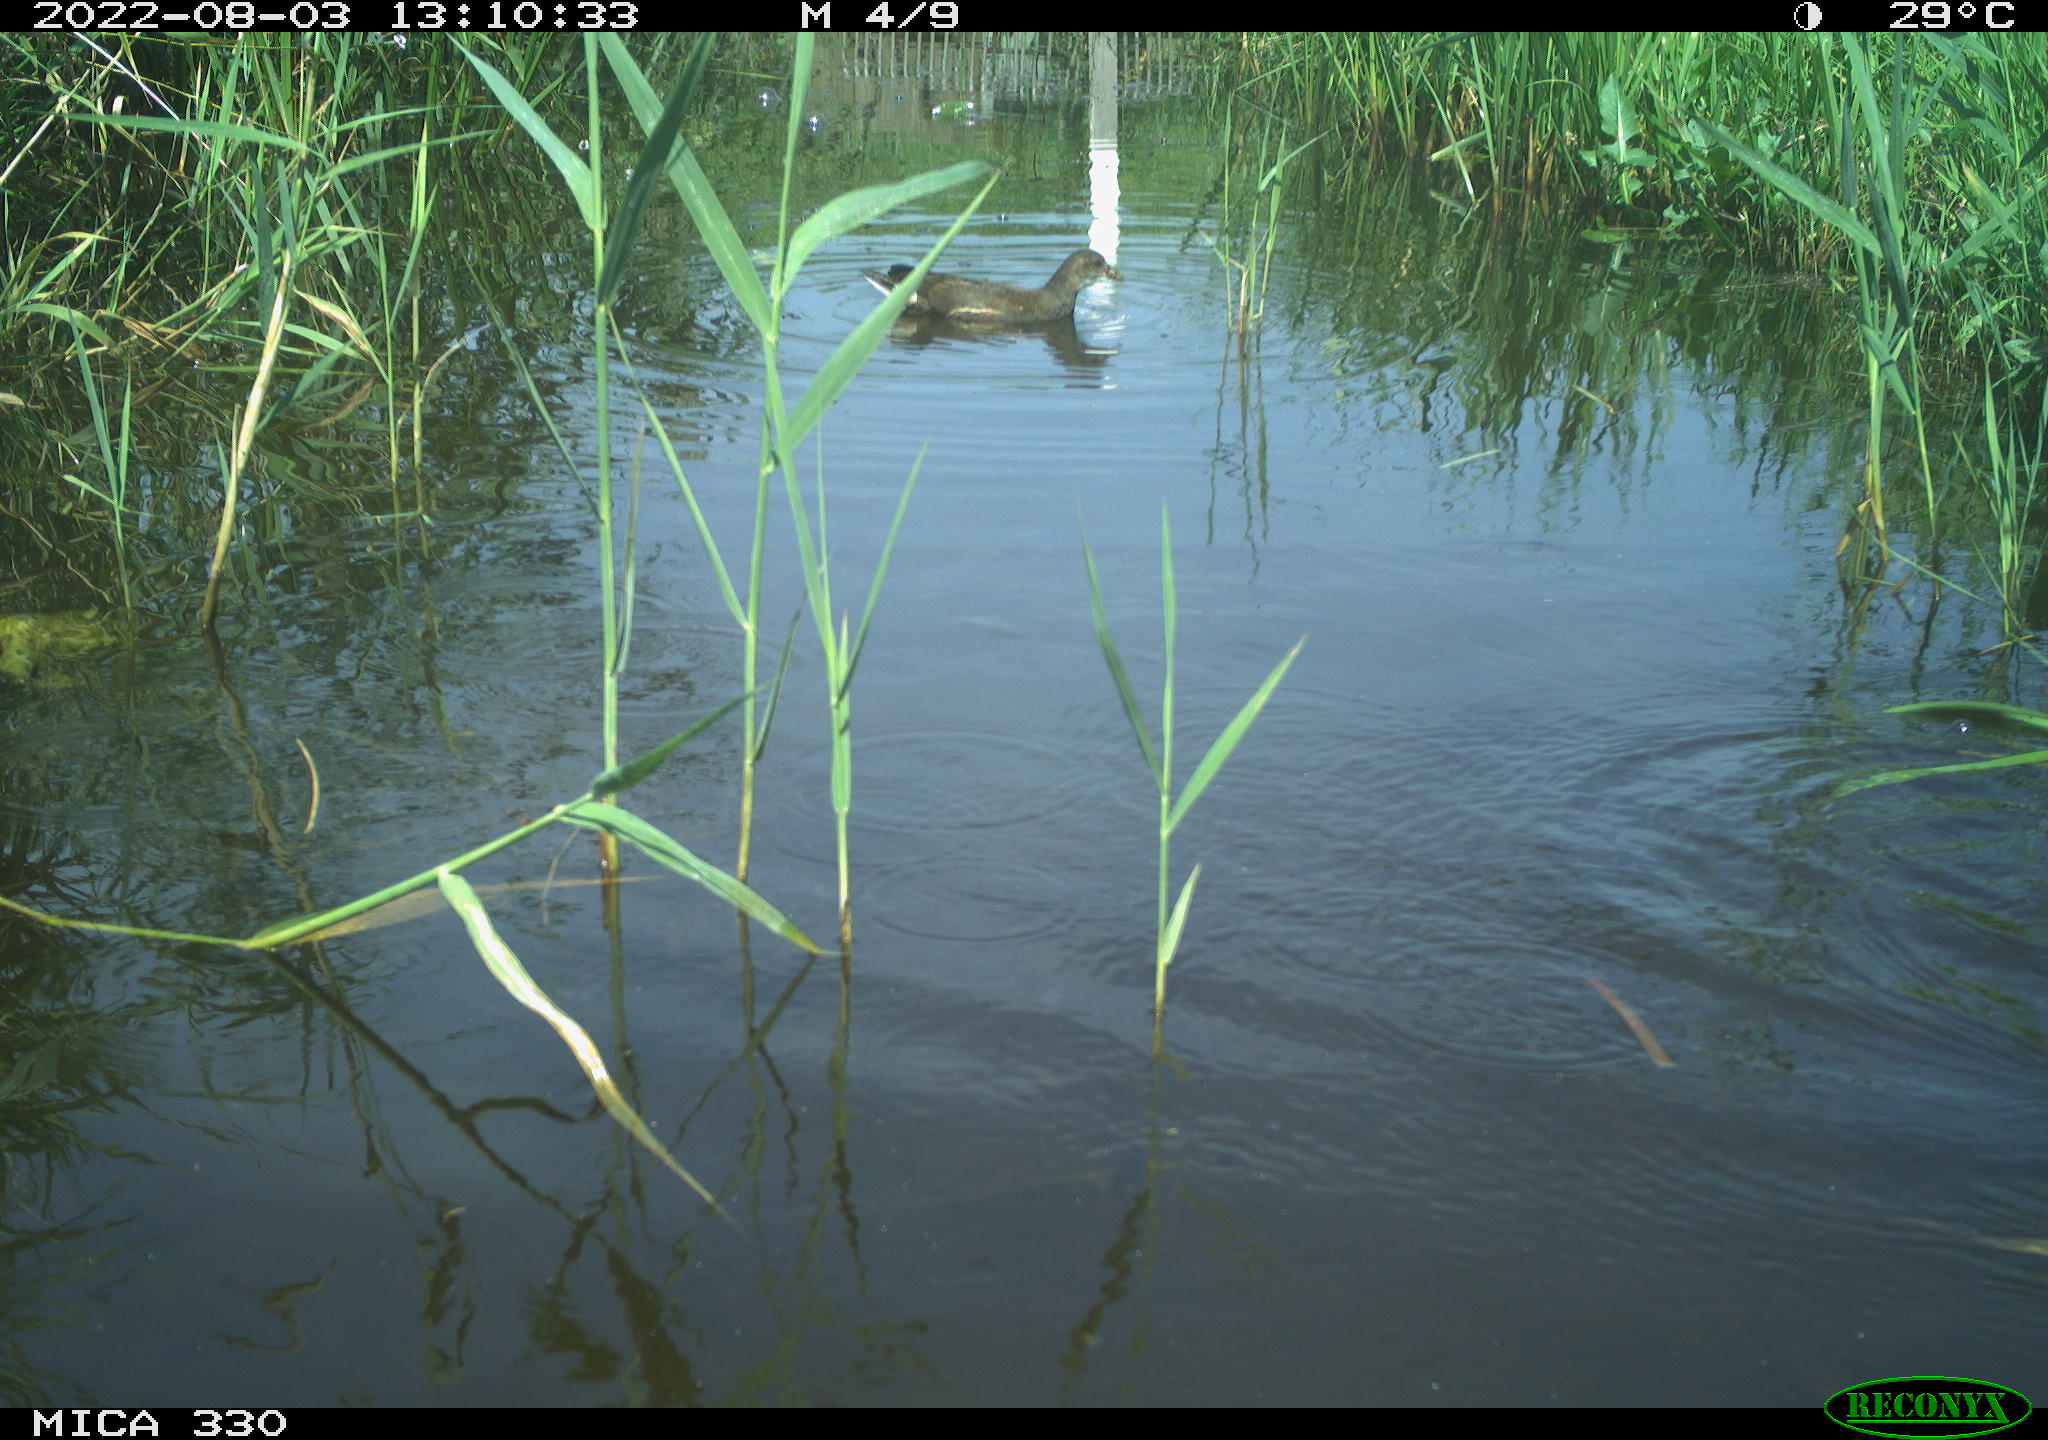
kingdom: Animalia
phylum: Chordata
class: Aves
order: Anseriformes
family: Anatidae
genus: Mareca
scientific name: Mareca strepera
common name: Gadwall
